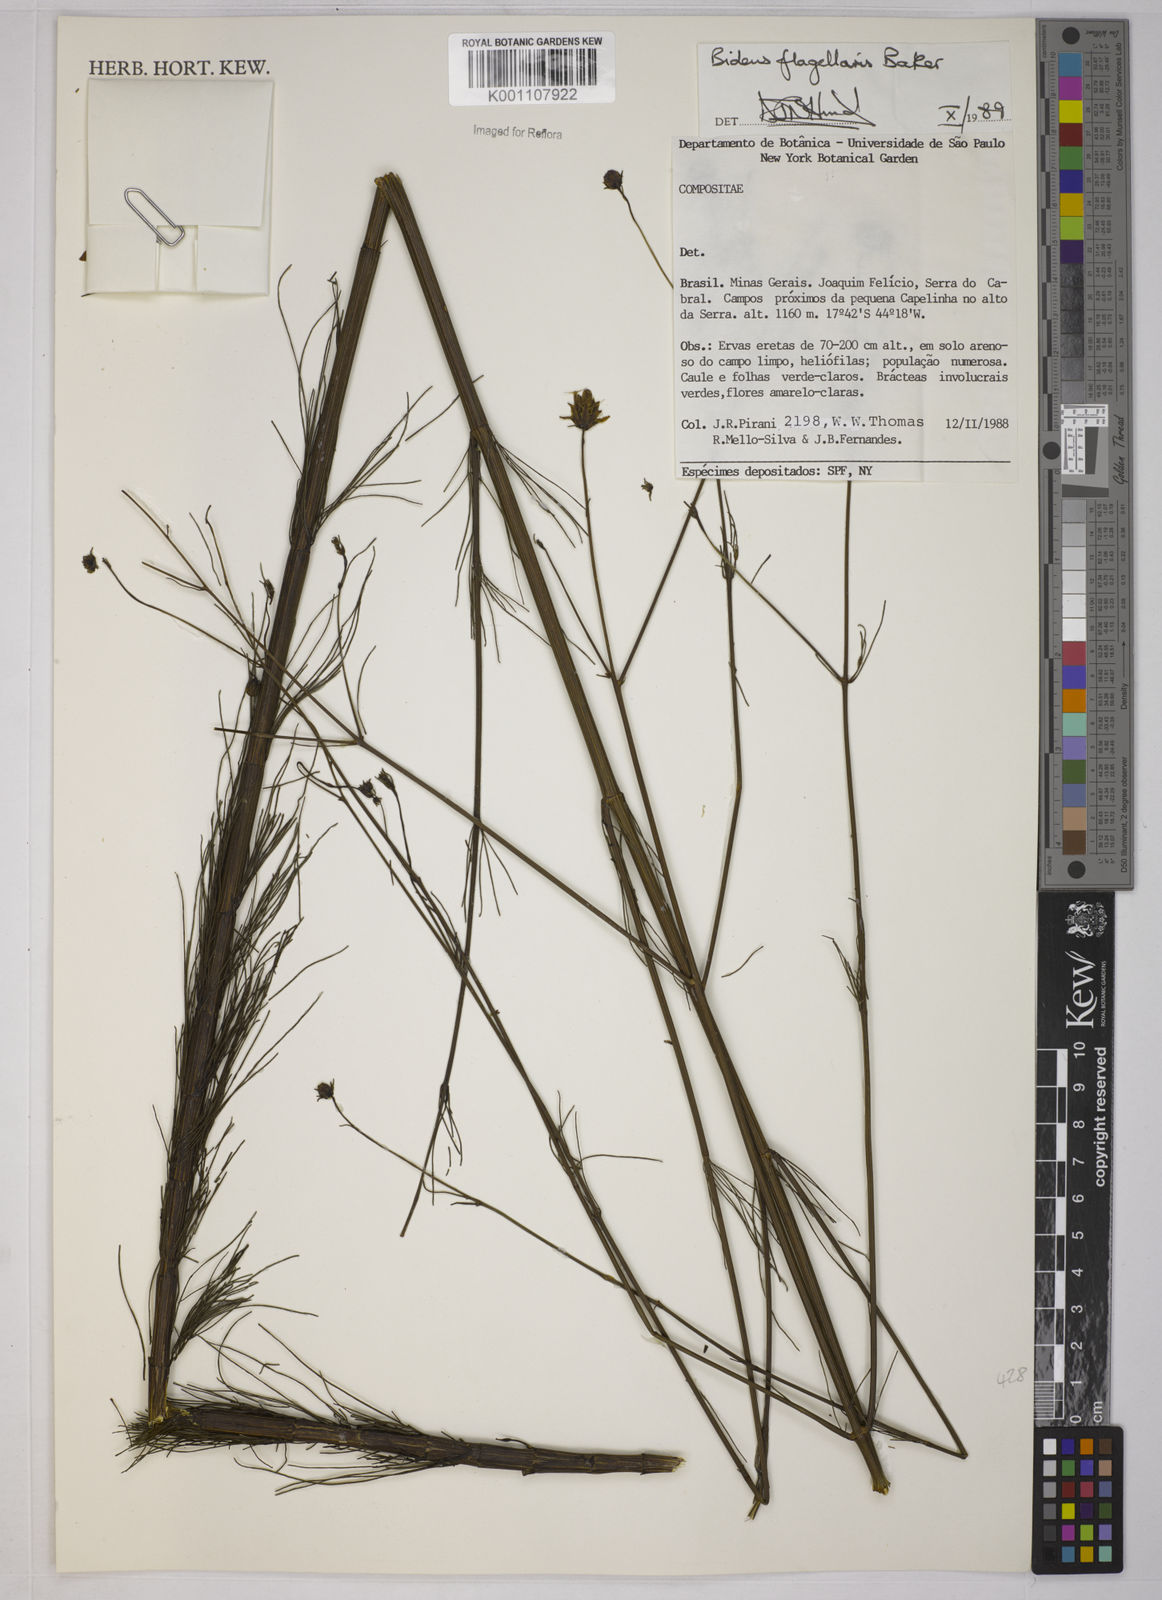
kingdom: Plantae
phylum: Tracheophyta
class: Magnoliopsida
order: Asterales
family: Asteraceae
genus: Bidens
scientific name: Bidens flagellaris
